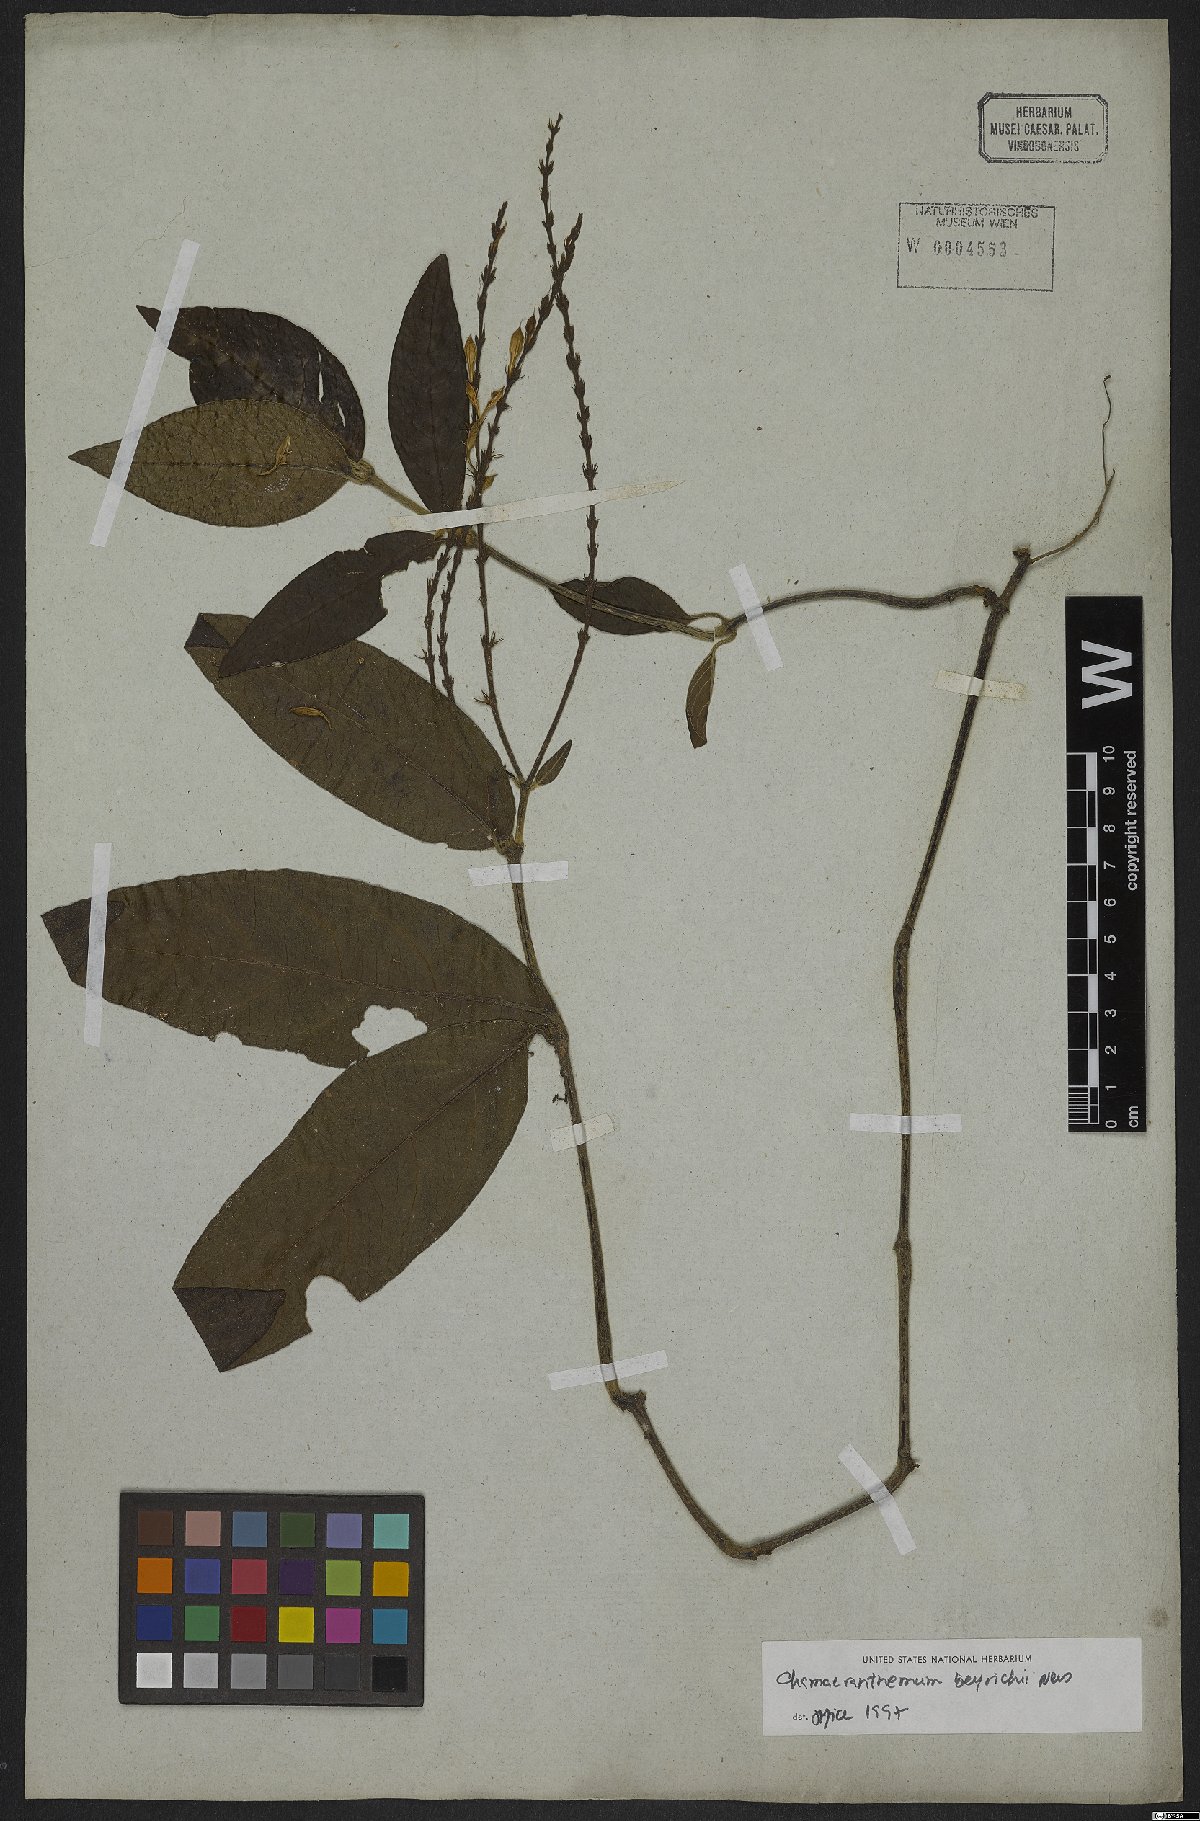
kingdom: Plantae
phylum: Tracheophyta
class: Magnoliopsida
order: Lamiales
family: Acanthaceae
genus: Chamaeranthemum
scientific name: Chamaeranthemum beyrichii
